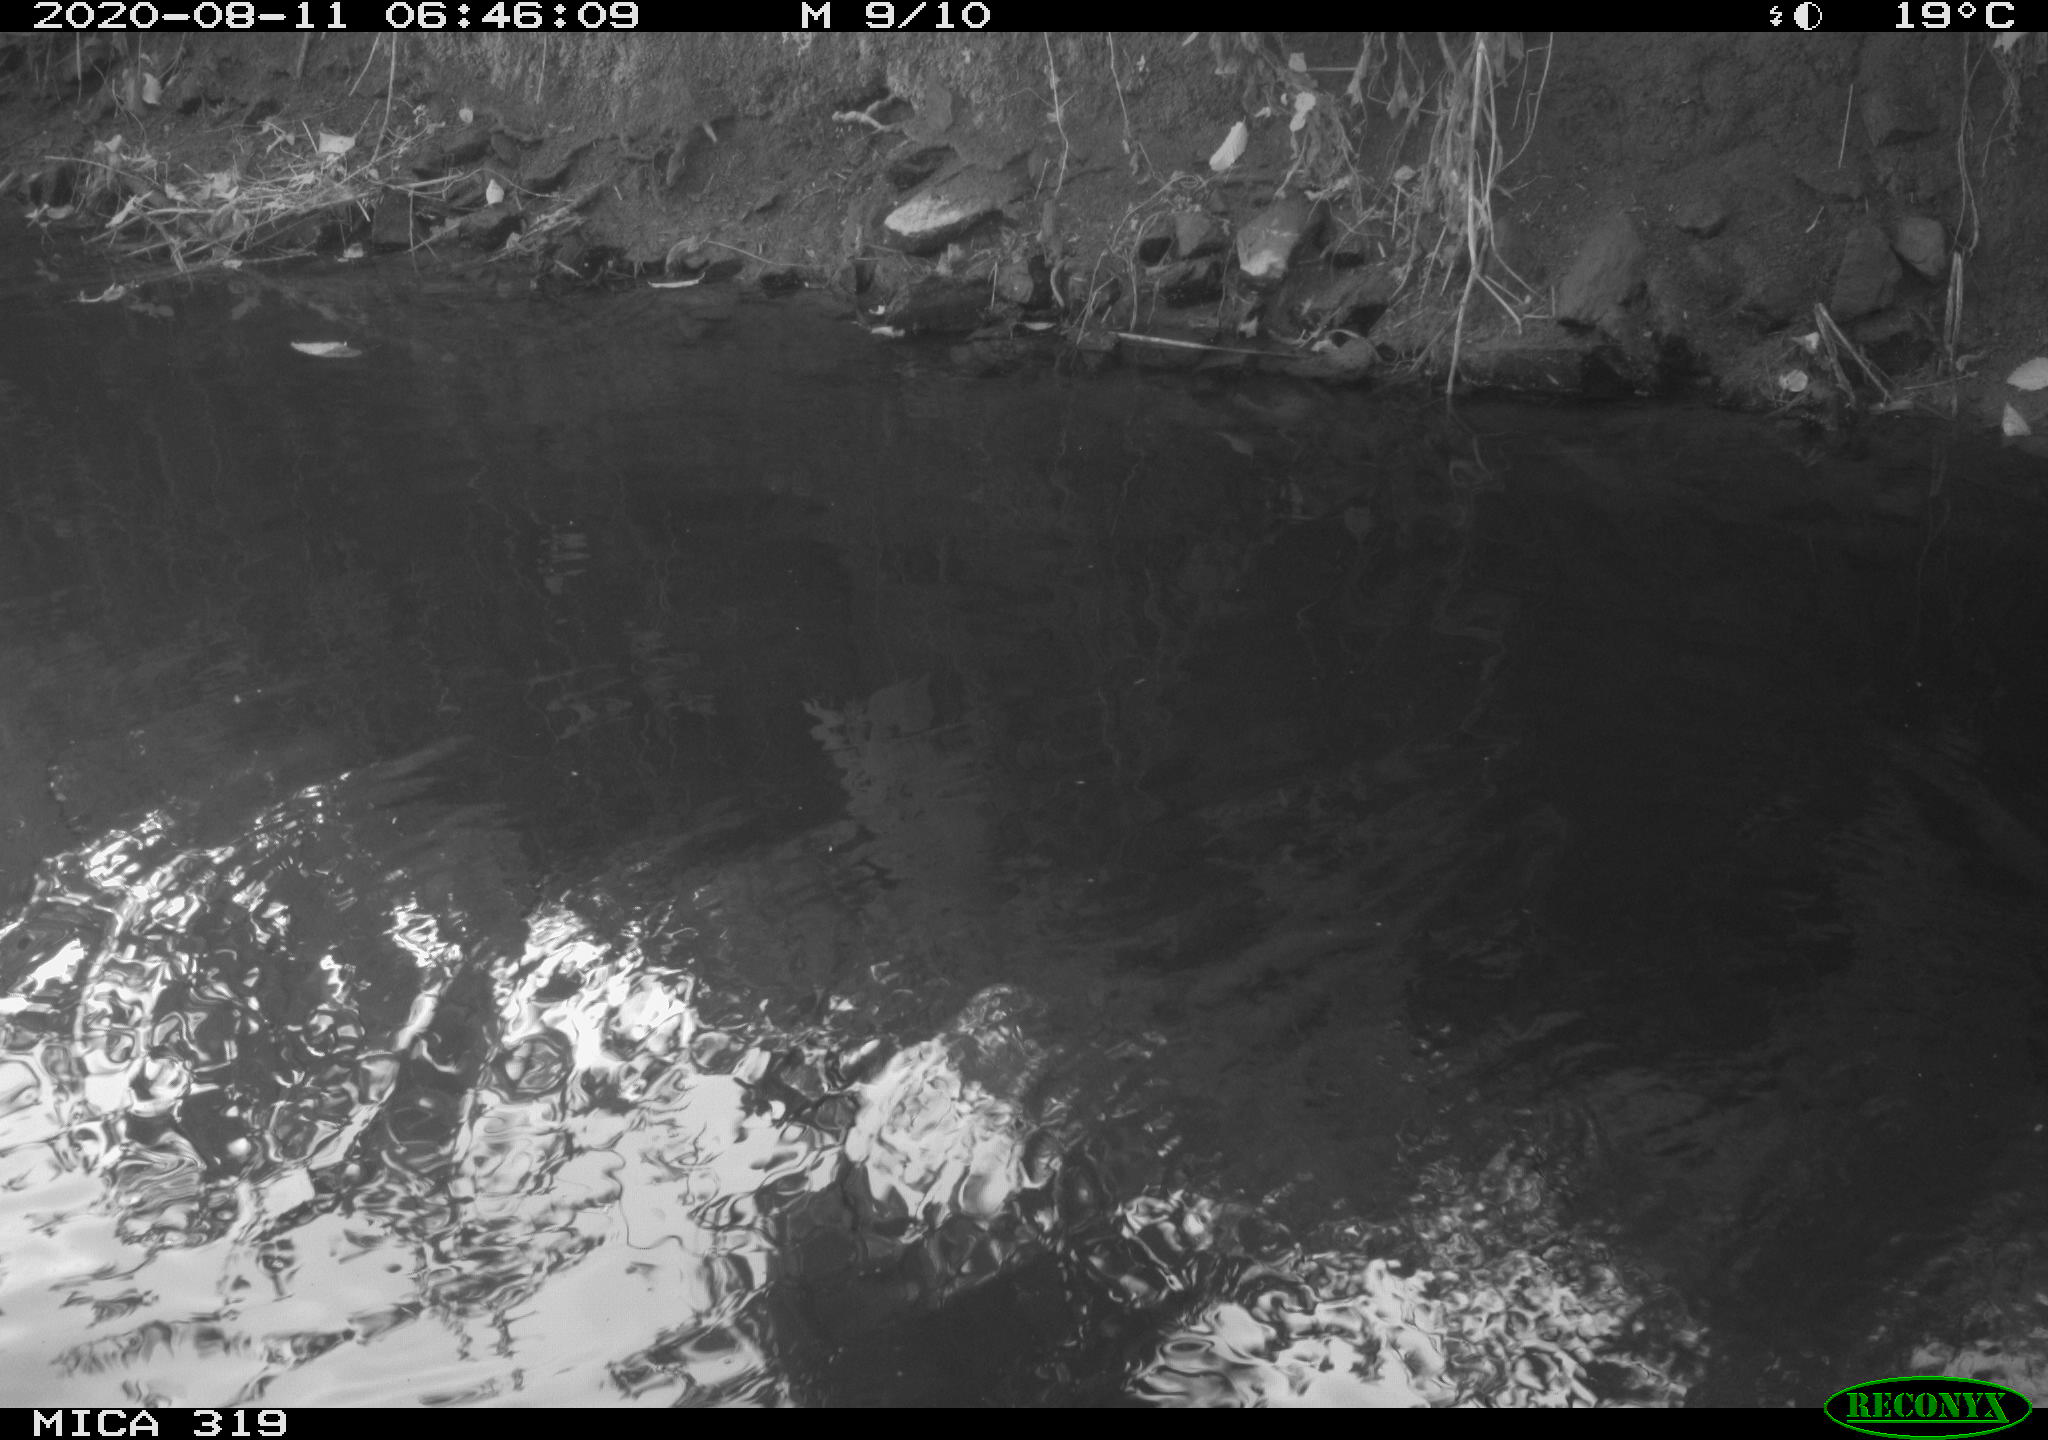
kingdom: Animalia
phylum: Chordata
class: Aves
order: Anseriformes
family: Anatidae
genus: Anas
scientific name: Anas platyrhynchos
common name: Mallard
